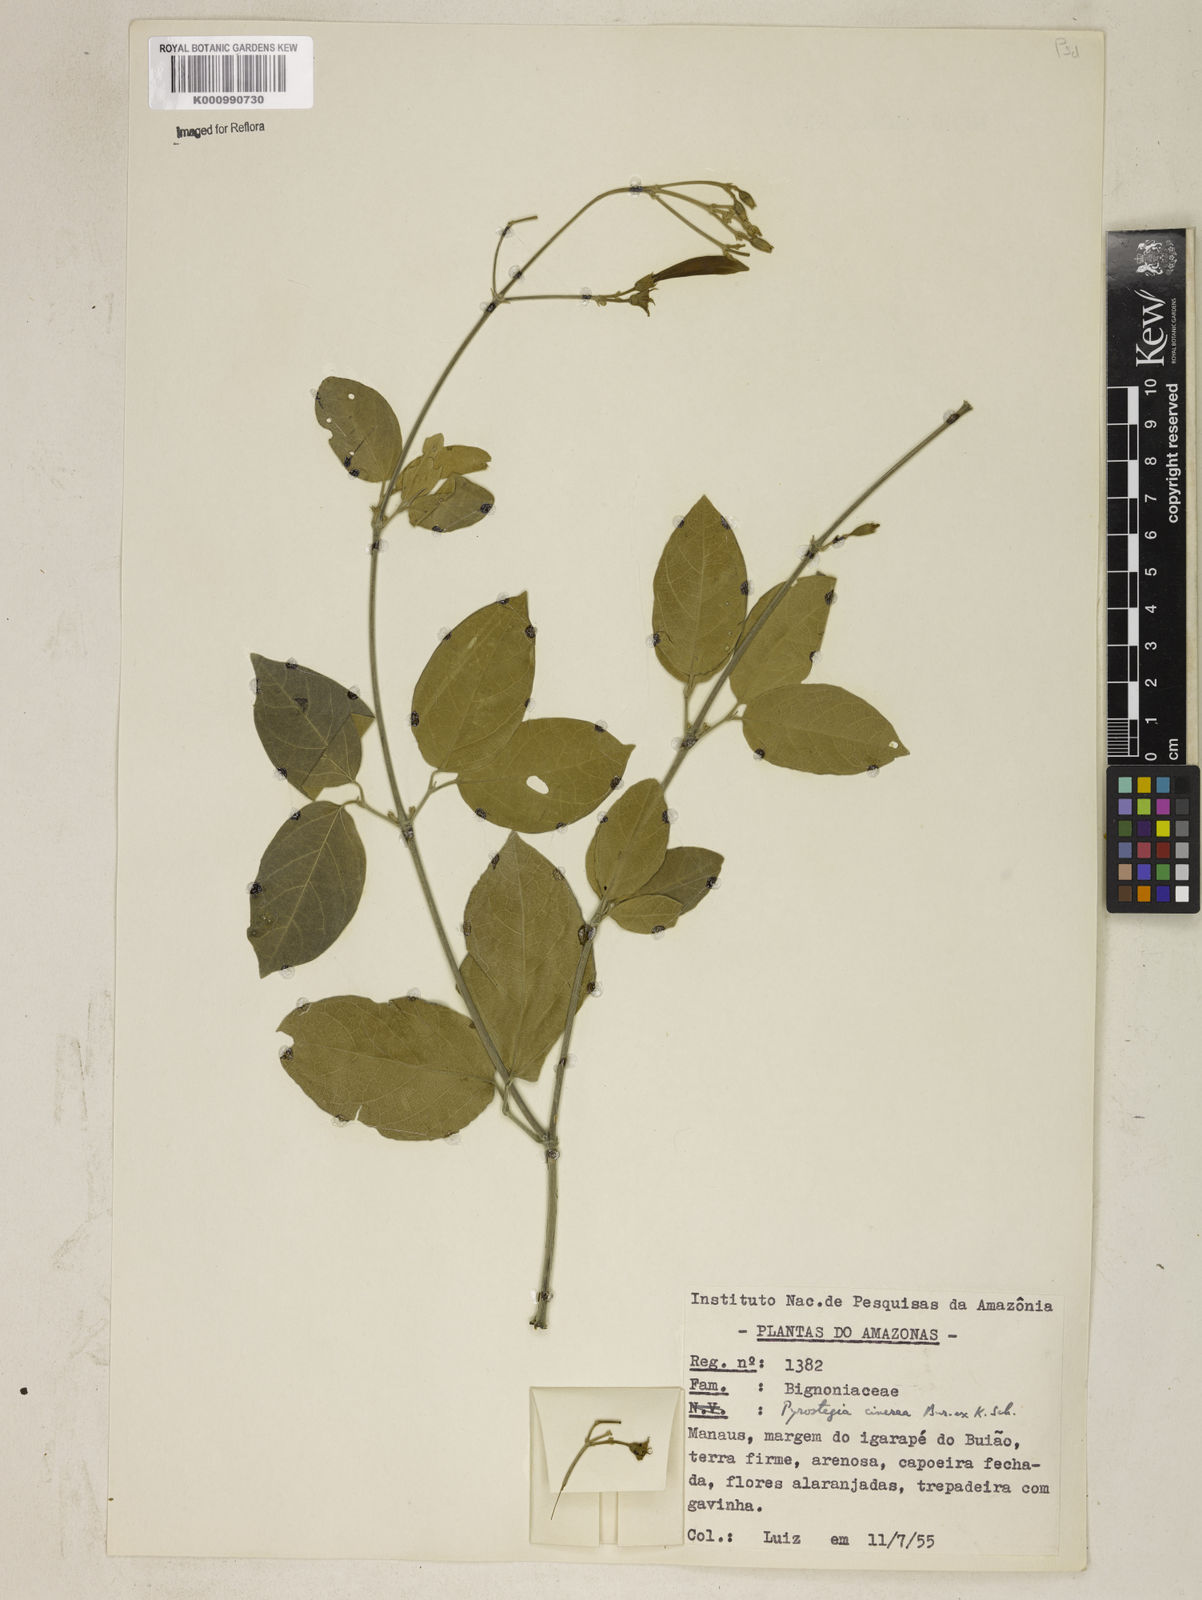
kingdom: Plantae
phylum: Tracheophyta
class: Magnoliopsida
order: Lamiales
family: Bignoniaceae
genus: Pyrostegia
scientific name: Pyrostegia
